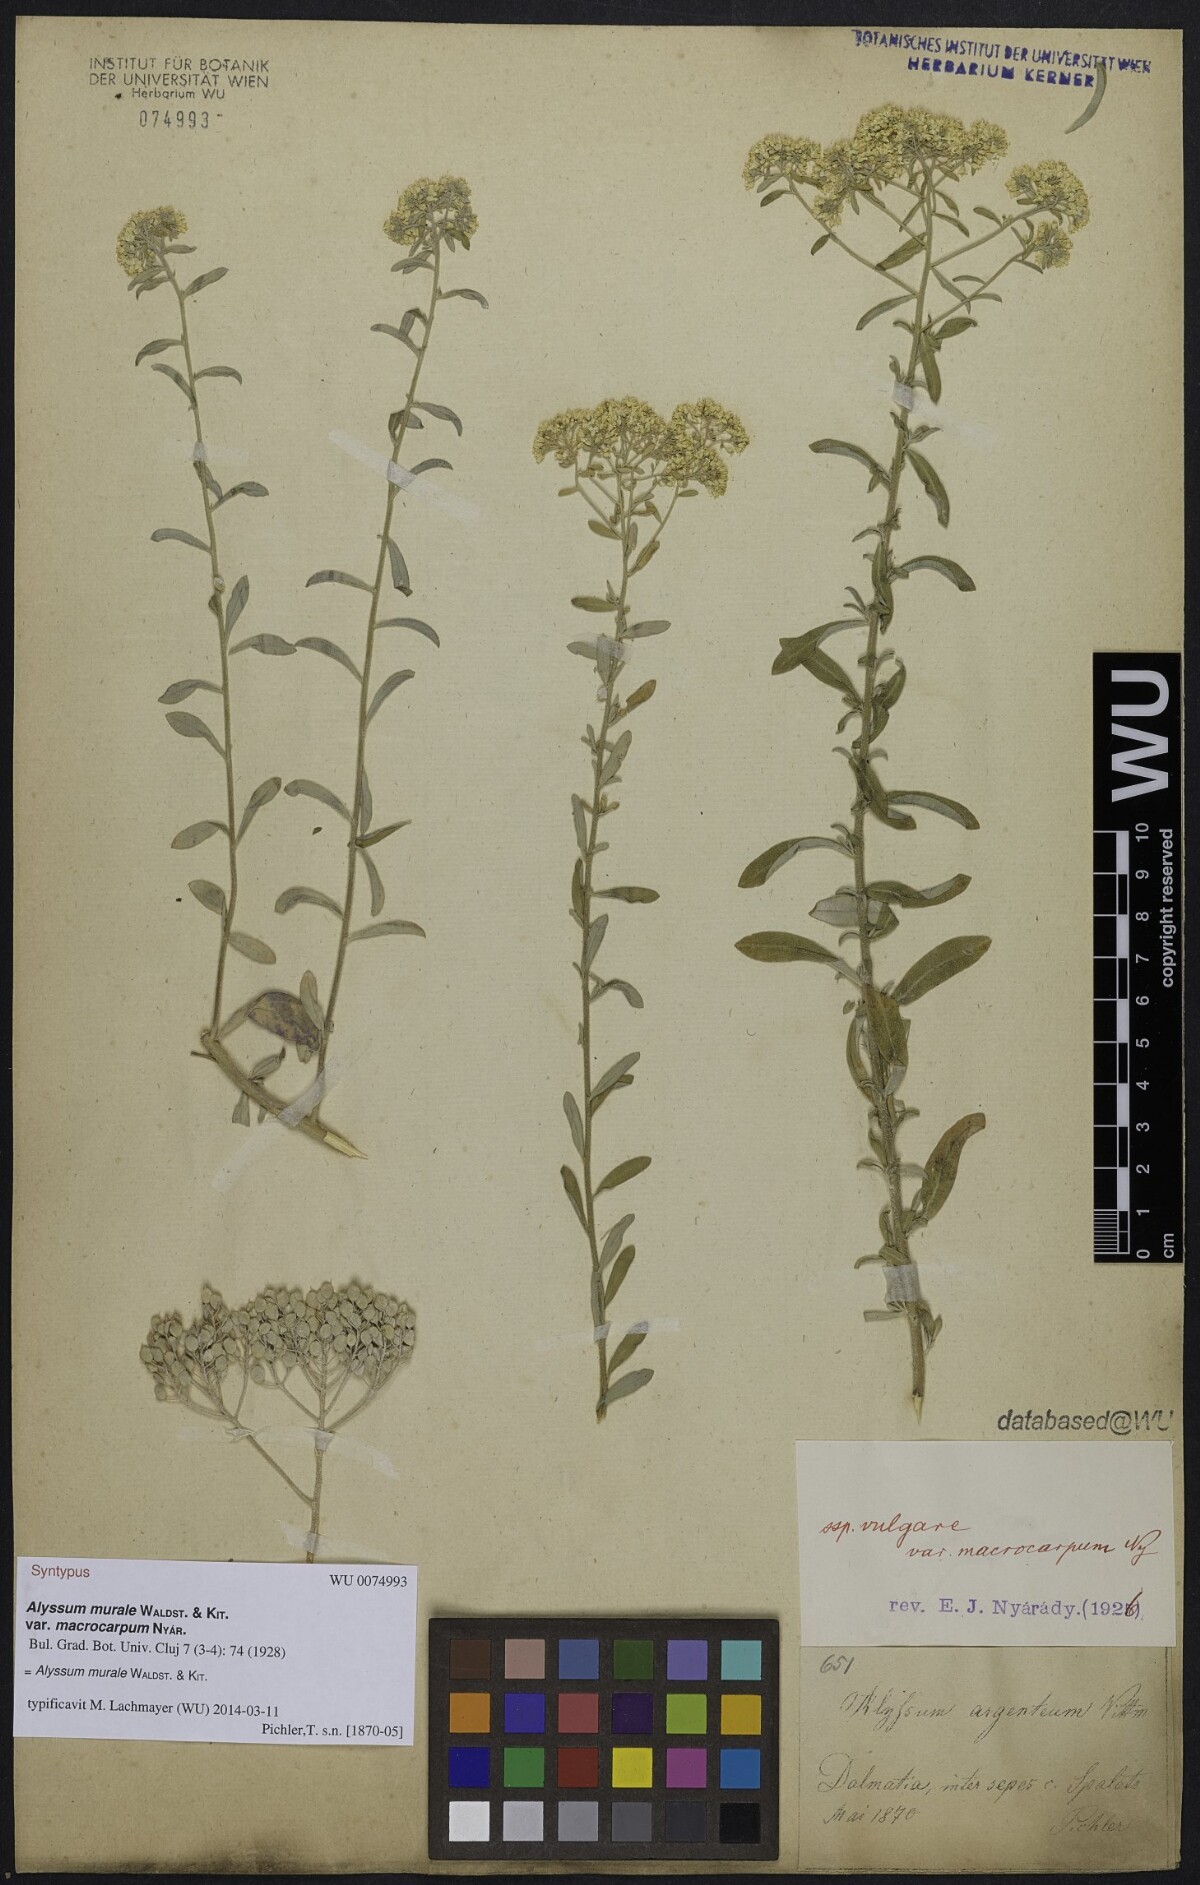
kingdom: Plantae
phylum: Tracheophyta
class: Magnoliopsida
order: Brassicales
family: Brassicaceae
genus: Odontarrhena
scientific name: Odontarrhena muralis
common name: Rock alyssum
